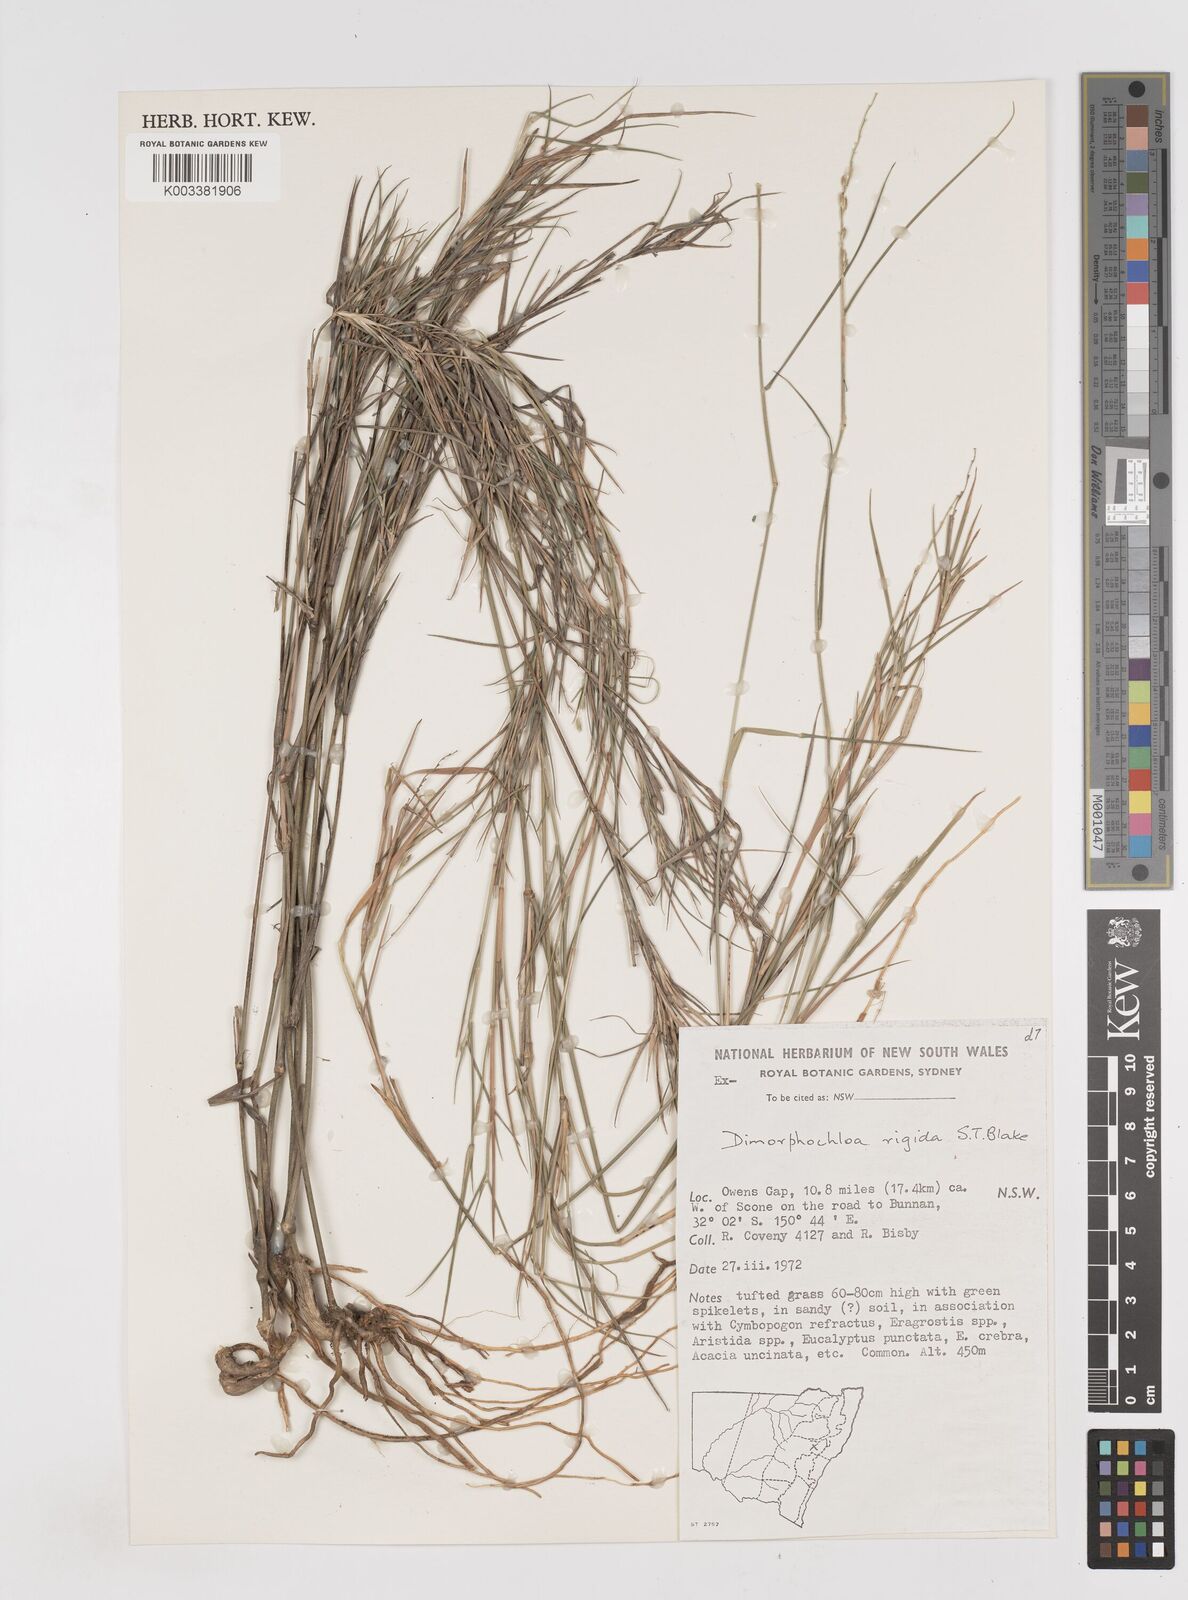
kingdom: Plantae
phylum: Tracheophyta
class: Liliopsida
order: Poales
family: Poaceae
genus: Dimorphochloa
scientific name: Dimorphochloa rigida
